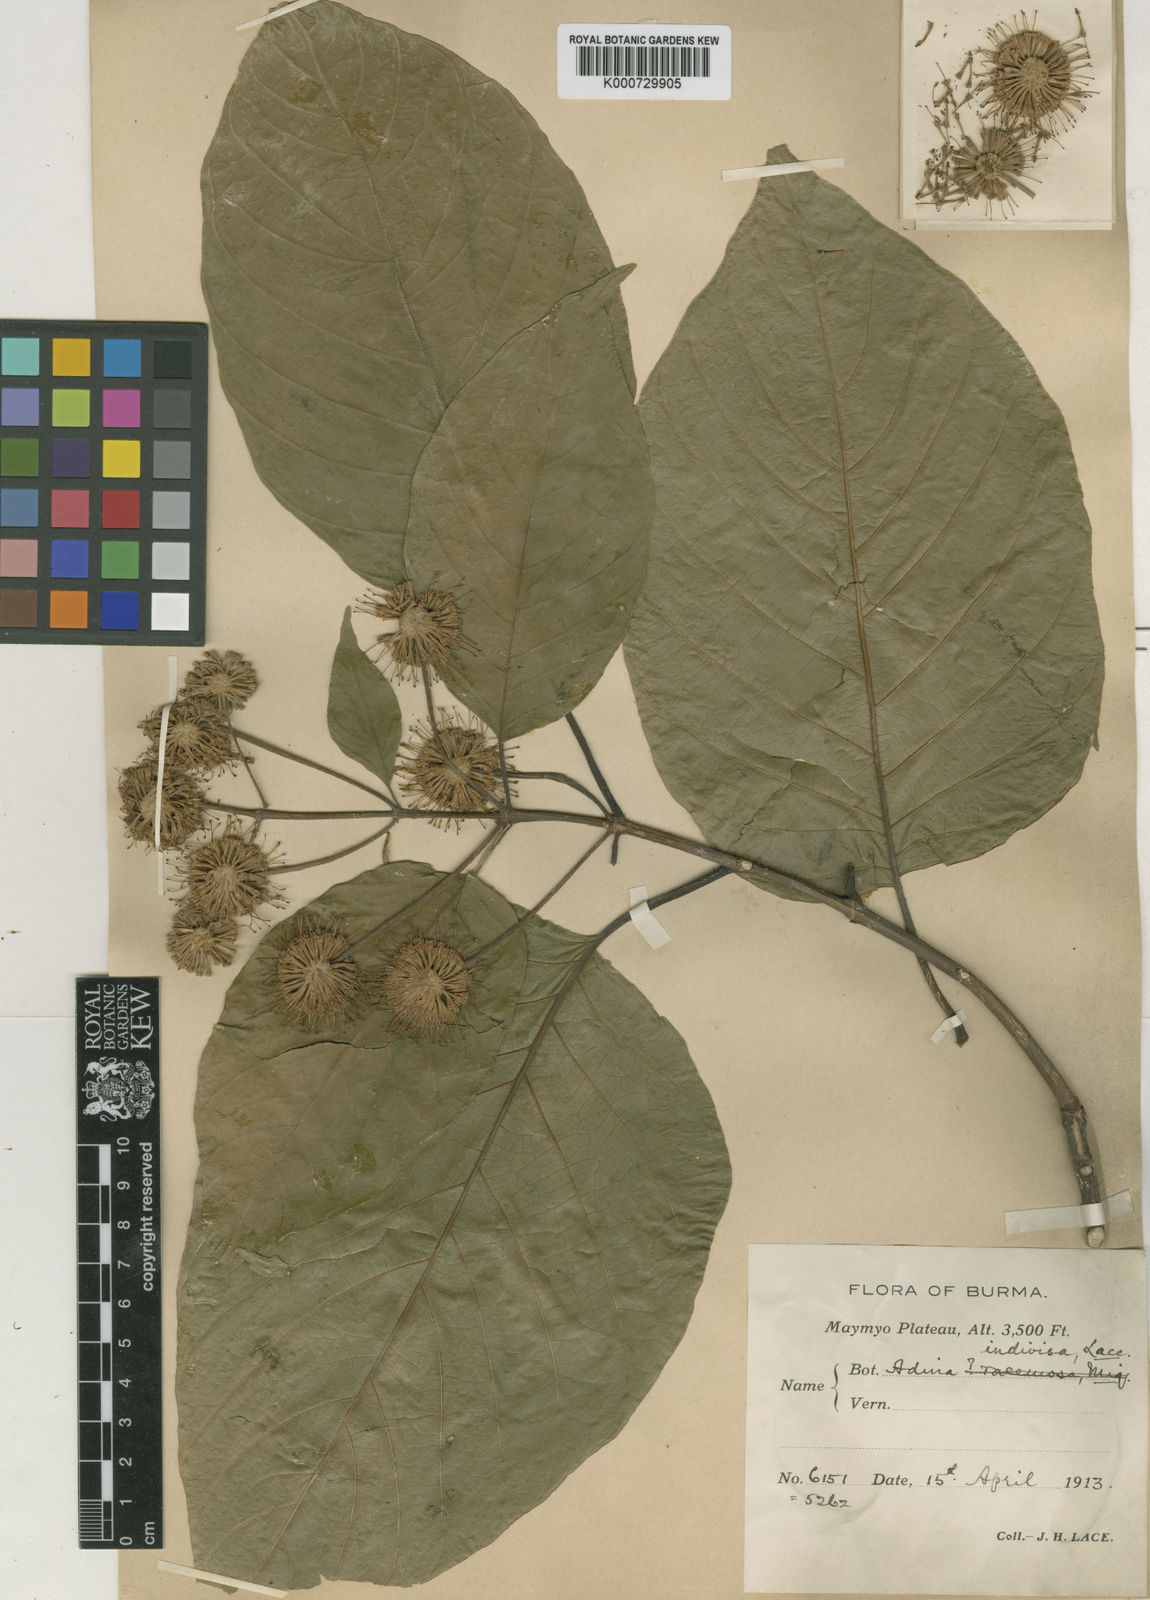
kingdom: Plantae
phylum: Tracheophyta
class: Magnoliopsida
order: Gentianales
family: Rubiaceae
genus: Adina
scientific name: Adina racemosa
